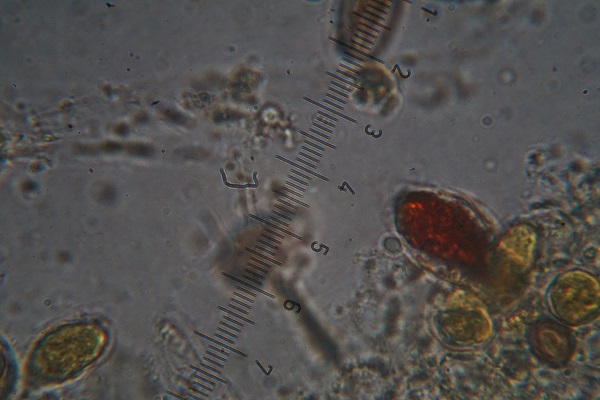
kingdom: Fungi
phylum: Basidiomycota
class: Agaricomycetes
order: Agaricales
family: Bolbitiaceae
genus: Panaeolus
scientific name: Panaeolus semiovatus
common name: ring-glanshat
